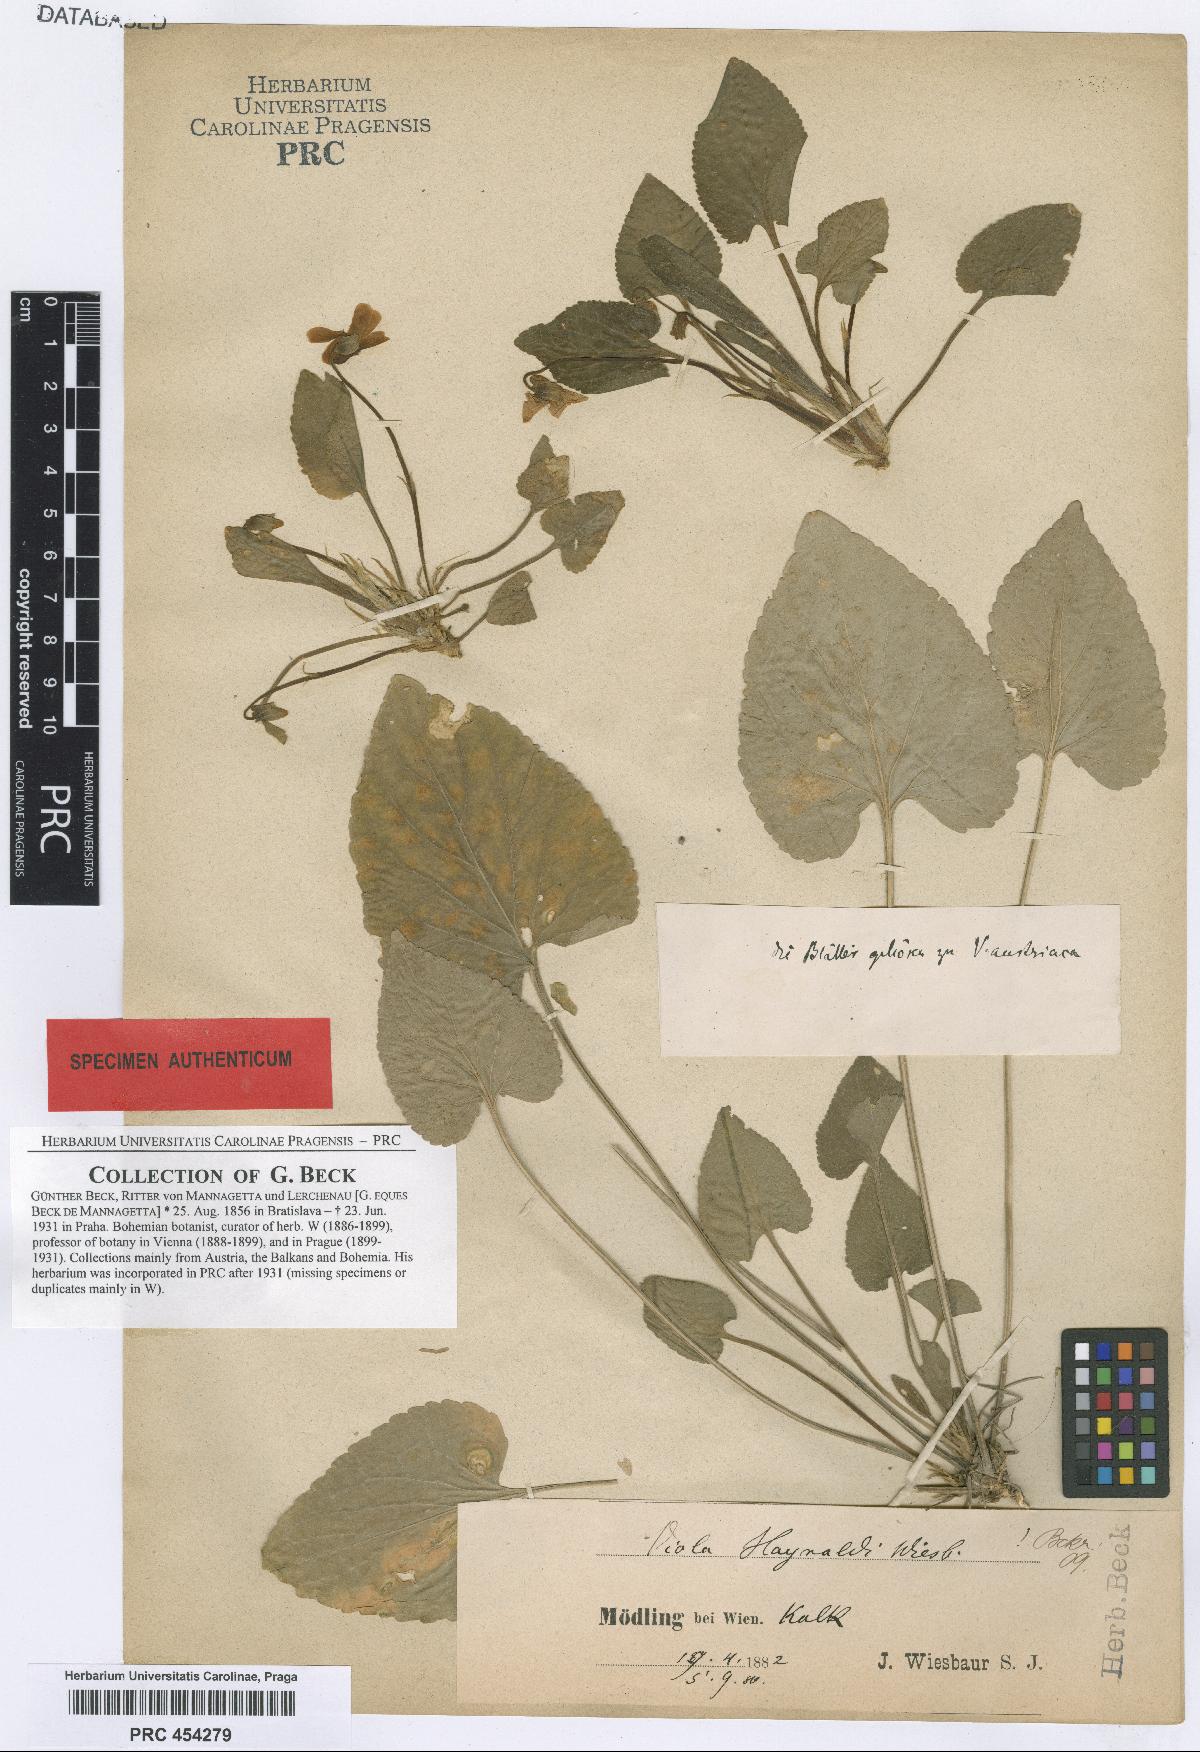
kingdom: Plantae
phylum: Tracheophyta
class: Magnoliopsida
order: Malpighiales
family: Violaceae
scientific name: Violaceae
